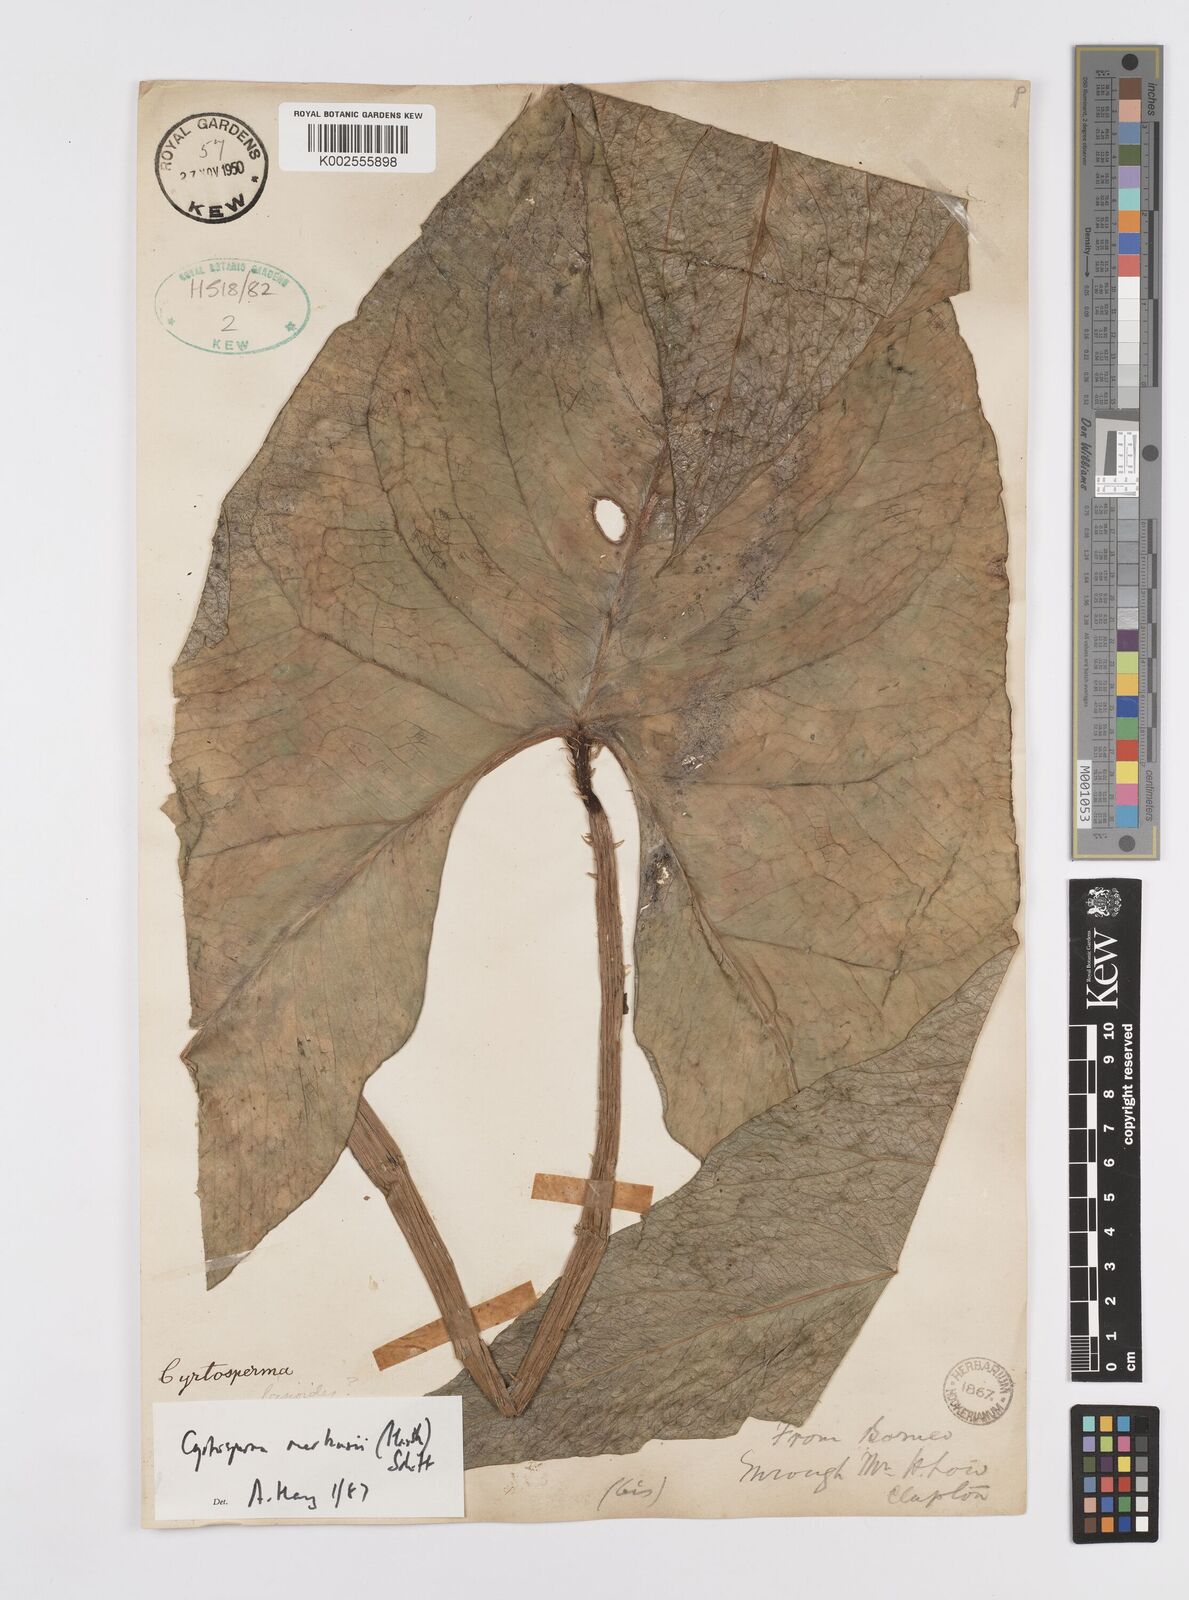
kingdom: Plantae
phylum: Tracheophyta
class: Liliopsida
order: Alismatales
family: Araceae
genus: Cyrtosperma
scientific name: Cyrtosperma merkusii
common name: Giant swamp-taro
